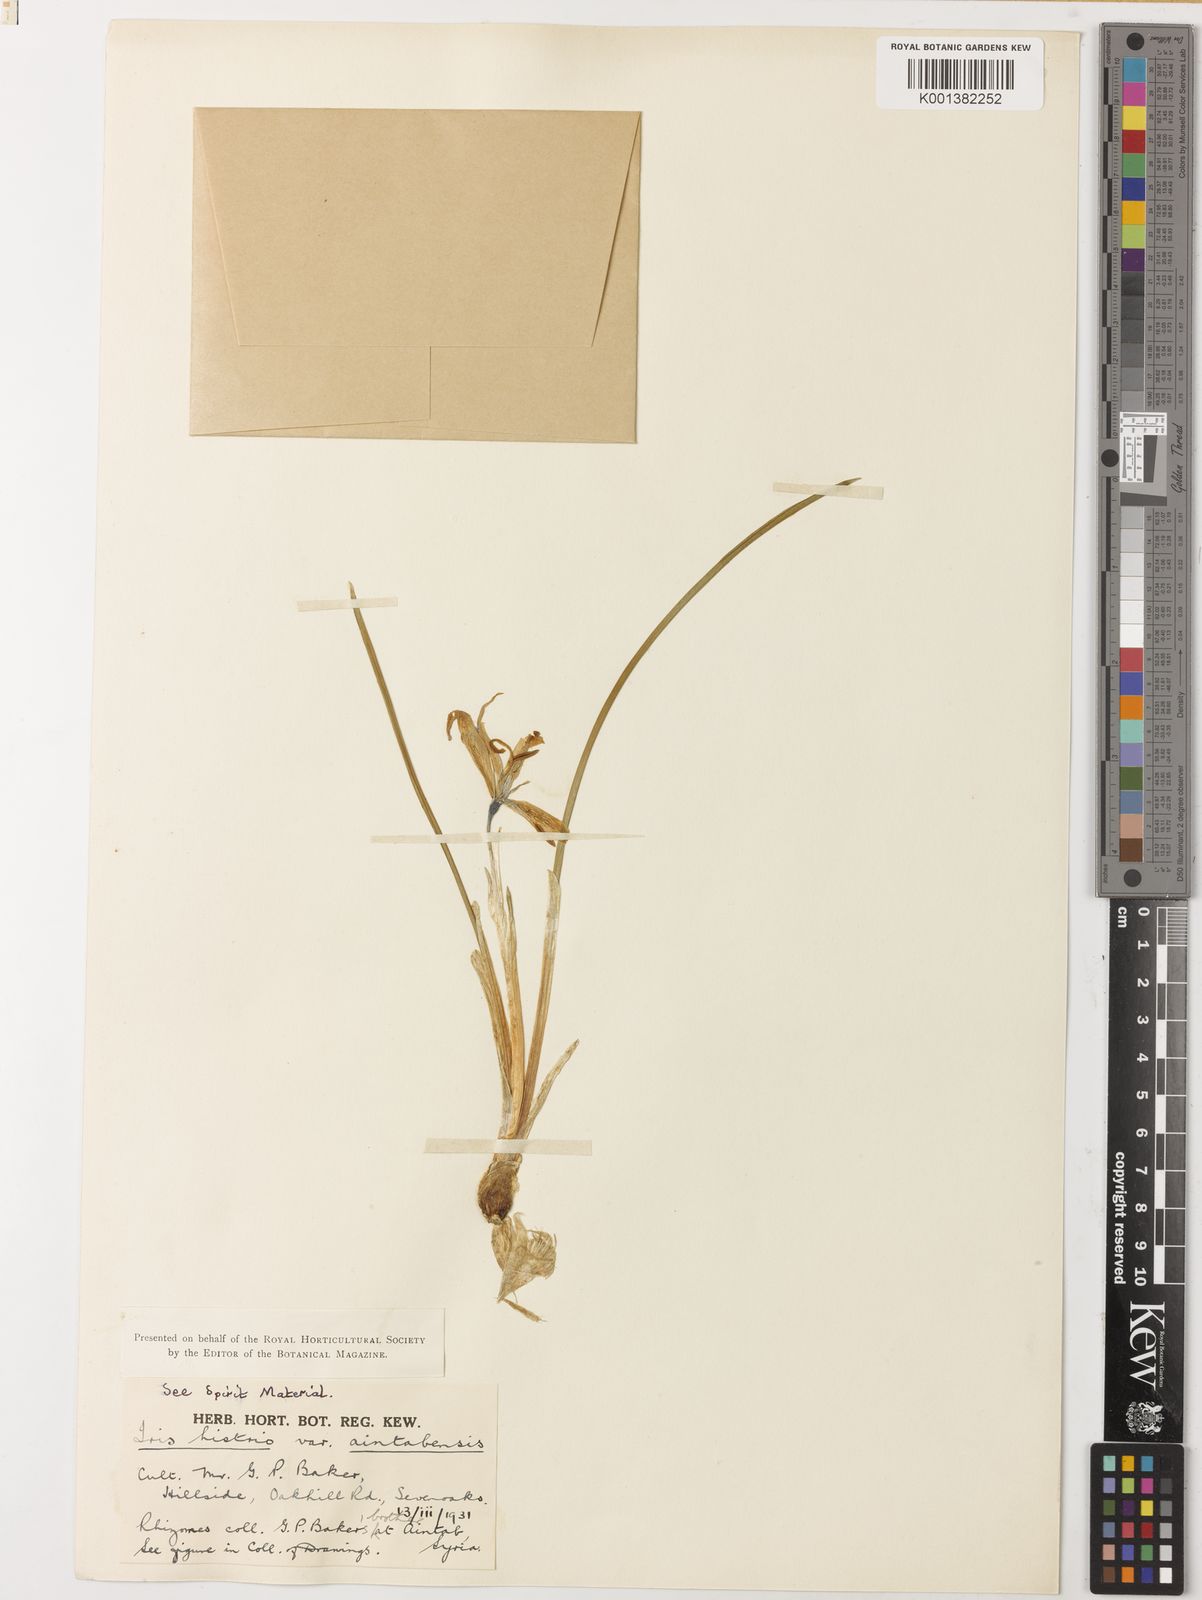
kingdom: Plantae
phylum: Tracheophyta
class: Liliopsida
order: Asparagales
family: Iridaceae
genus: Iris
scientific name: Iris histrio
